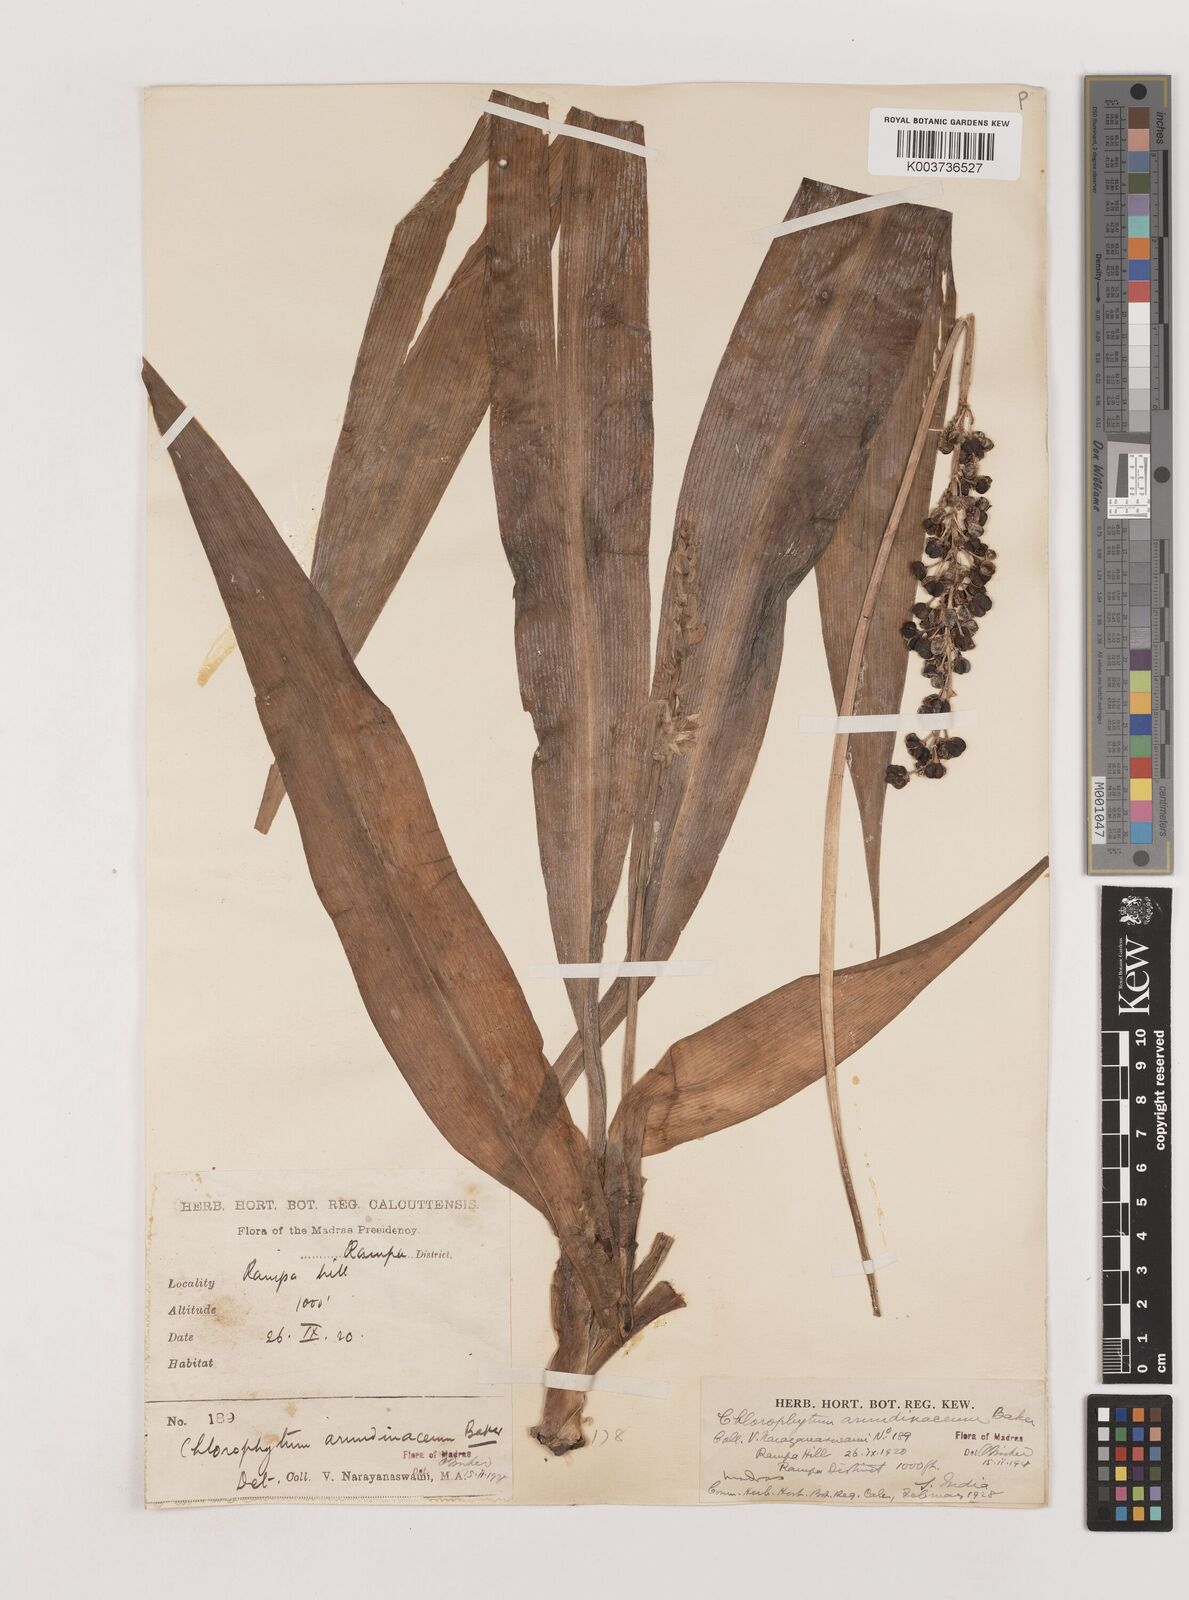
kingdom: Plantae
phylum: Tracheophyta
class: Liliopsida
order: Asparagales
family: Asparagaceae
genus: Chlorophytum
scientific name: Chlorophytum arundinaceum
